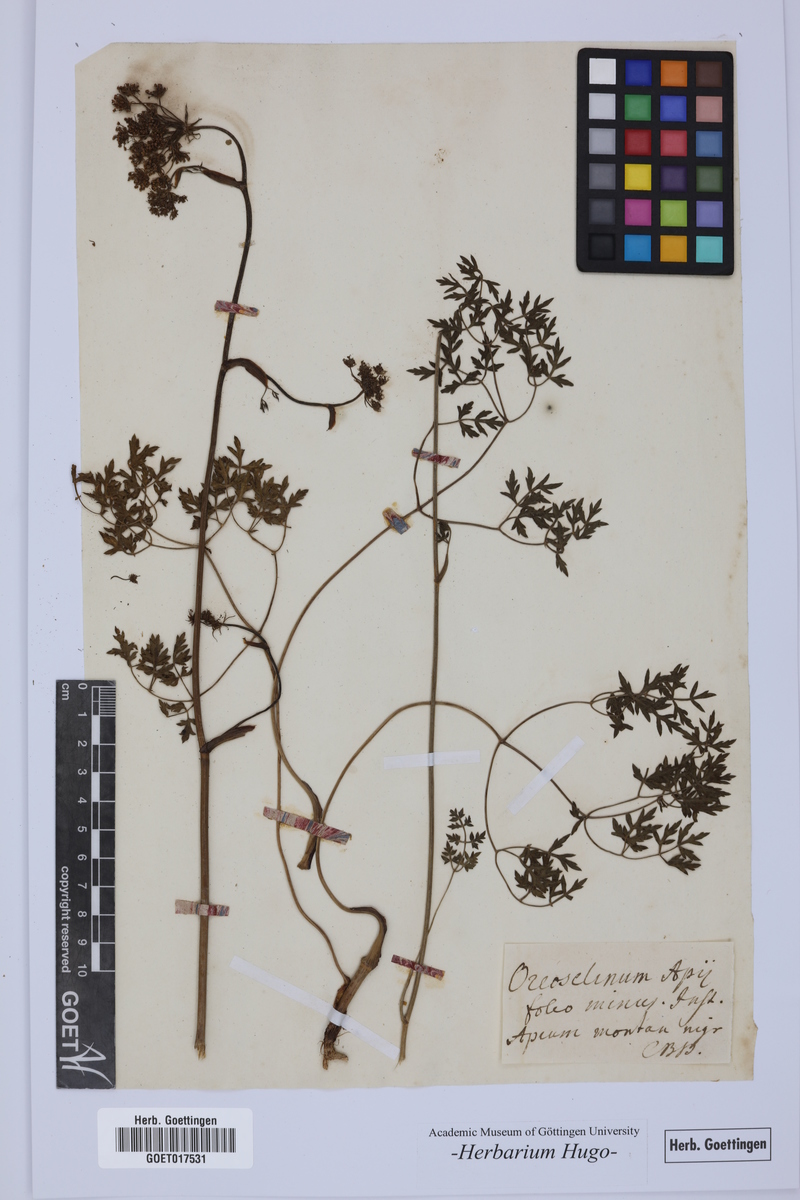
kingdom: Plantae
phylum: Tracheophyta
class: Magnoliopsida
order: Apiales
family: Apiaceae
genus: Oreoselinum
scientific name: Oreoselinum
